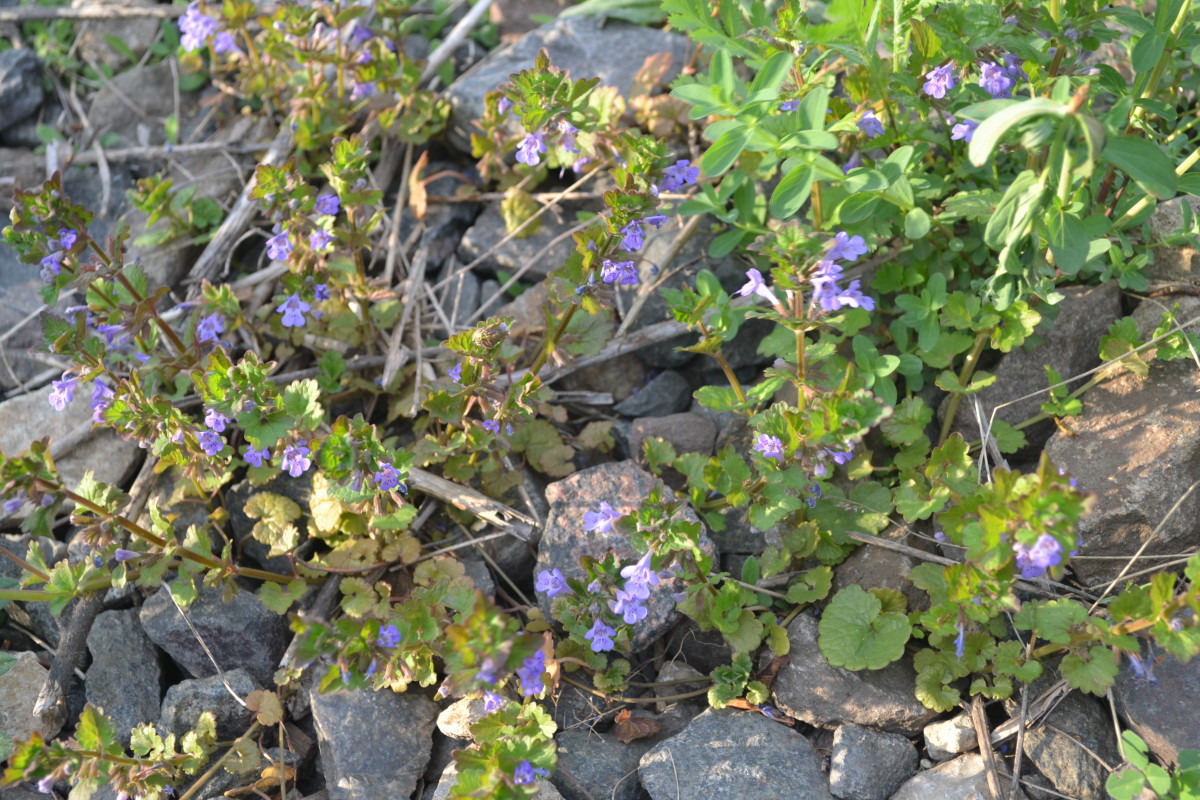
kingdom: Plantae
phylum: Tracheophyta
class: Magnoliopsida
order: Lamiales
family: Lamiaceae
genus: Glechoma
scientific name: Glechoma hederacea
